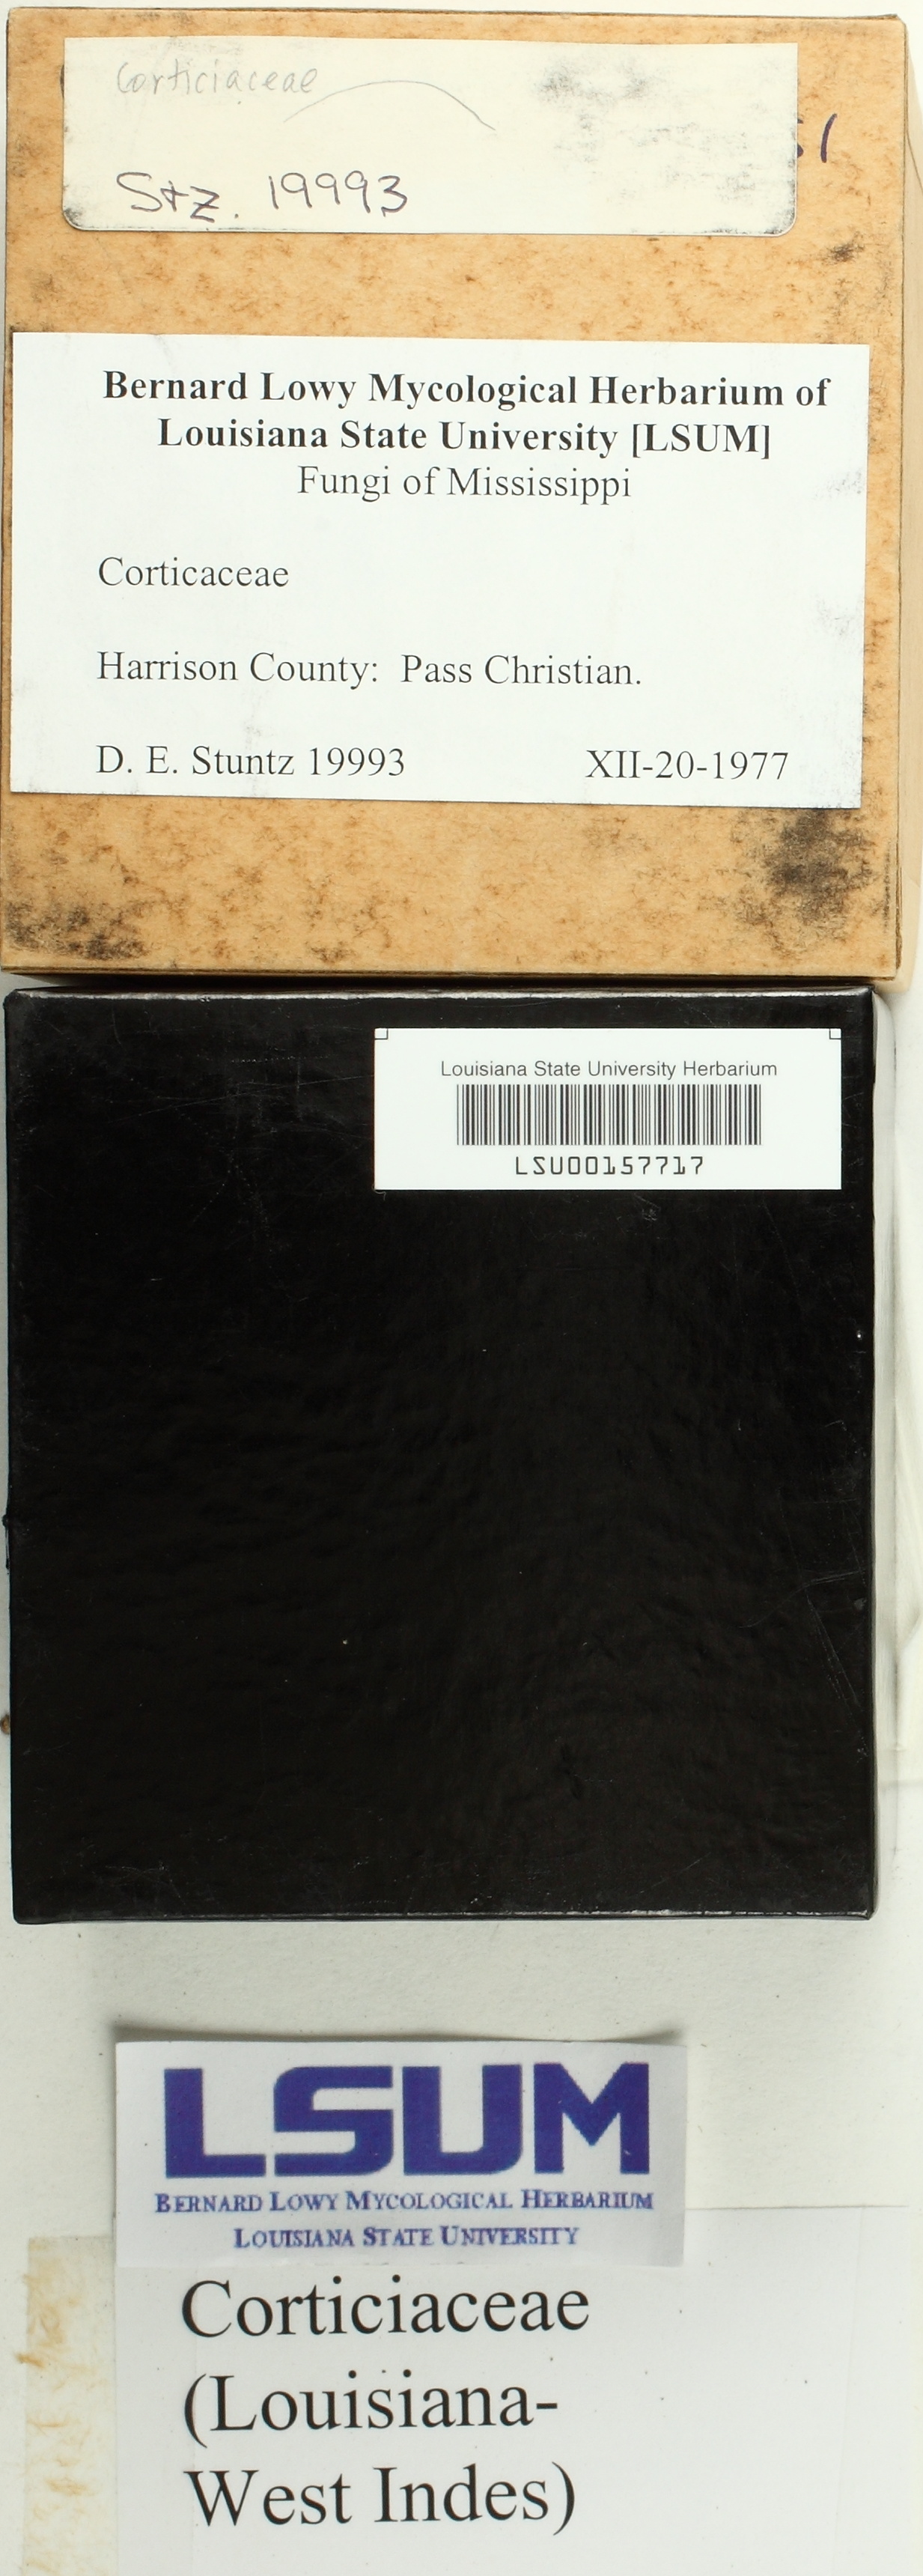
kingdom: Fungi
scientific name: Fungi
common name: Fungi
